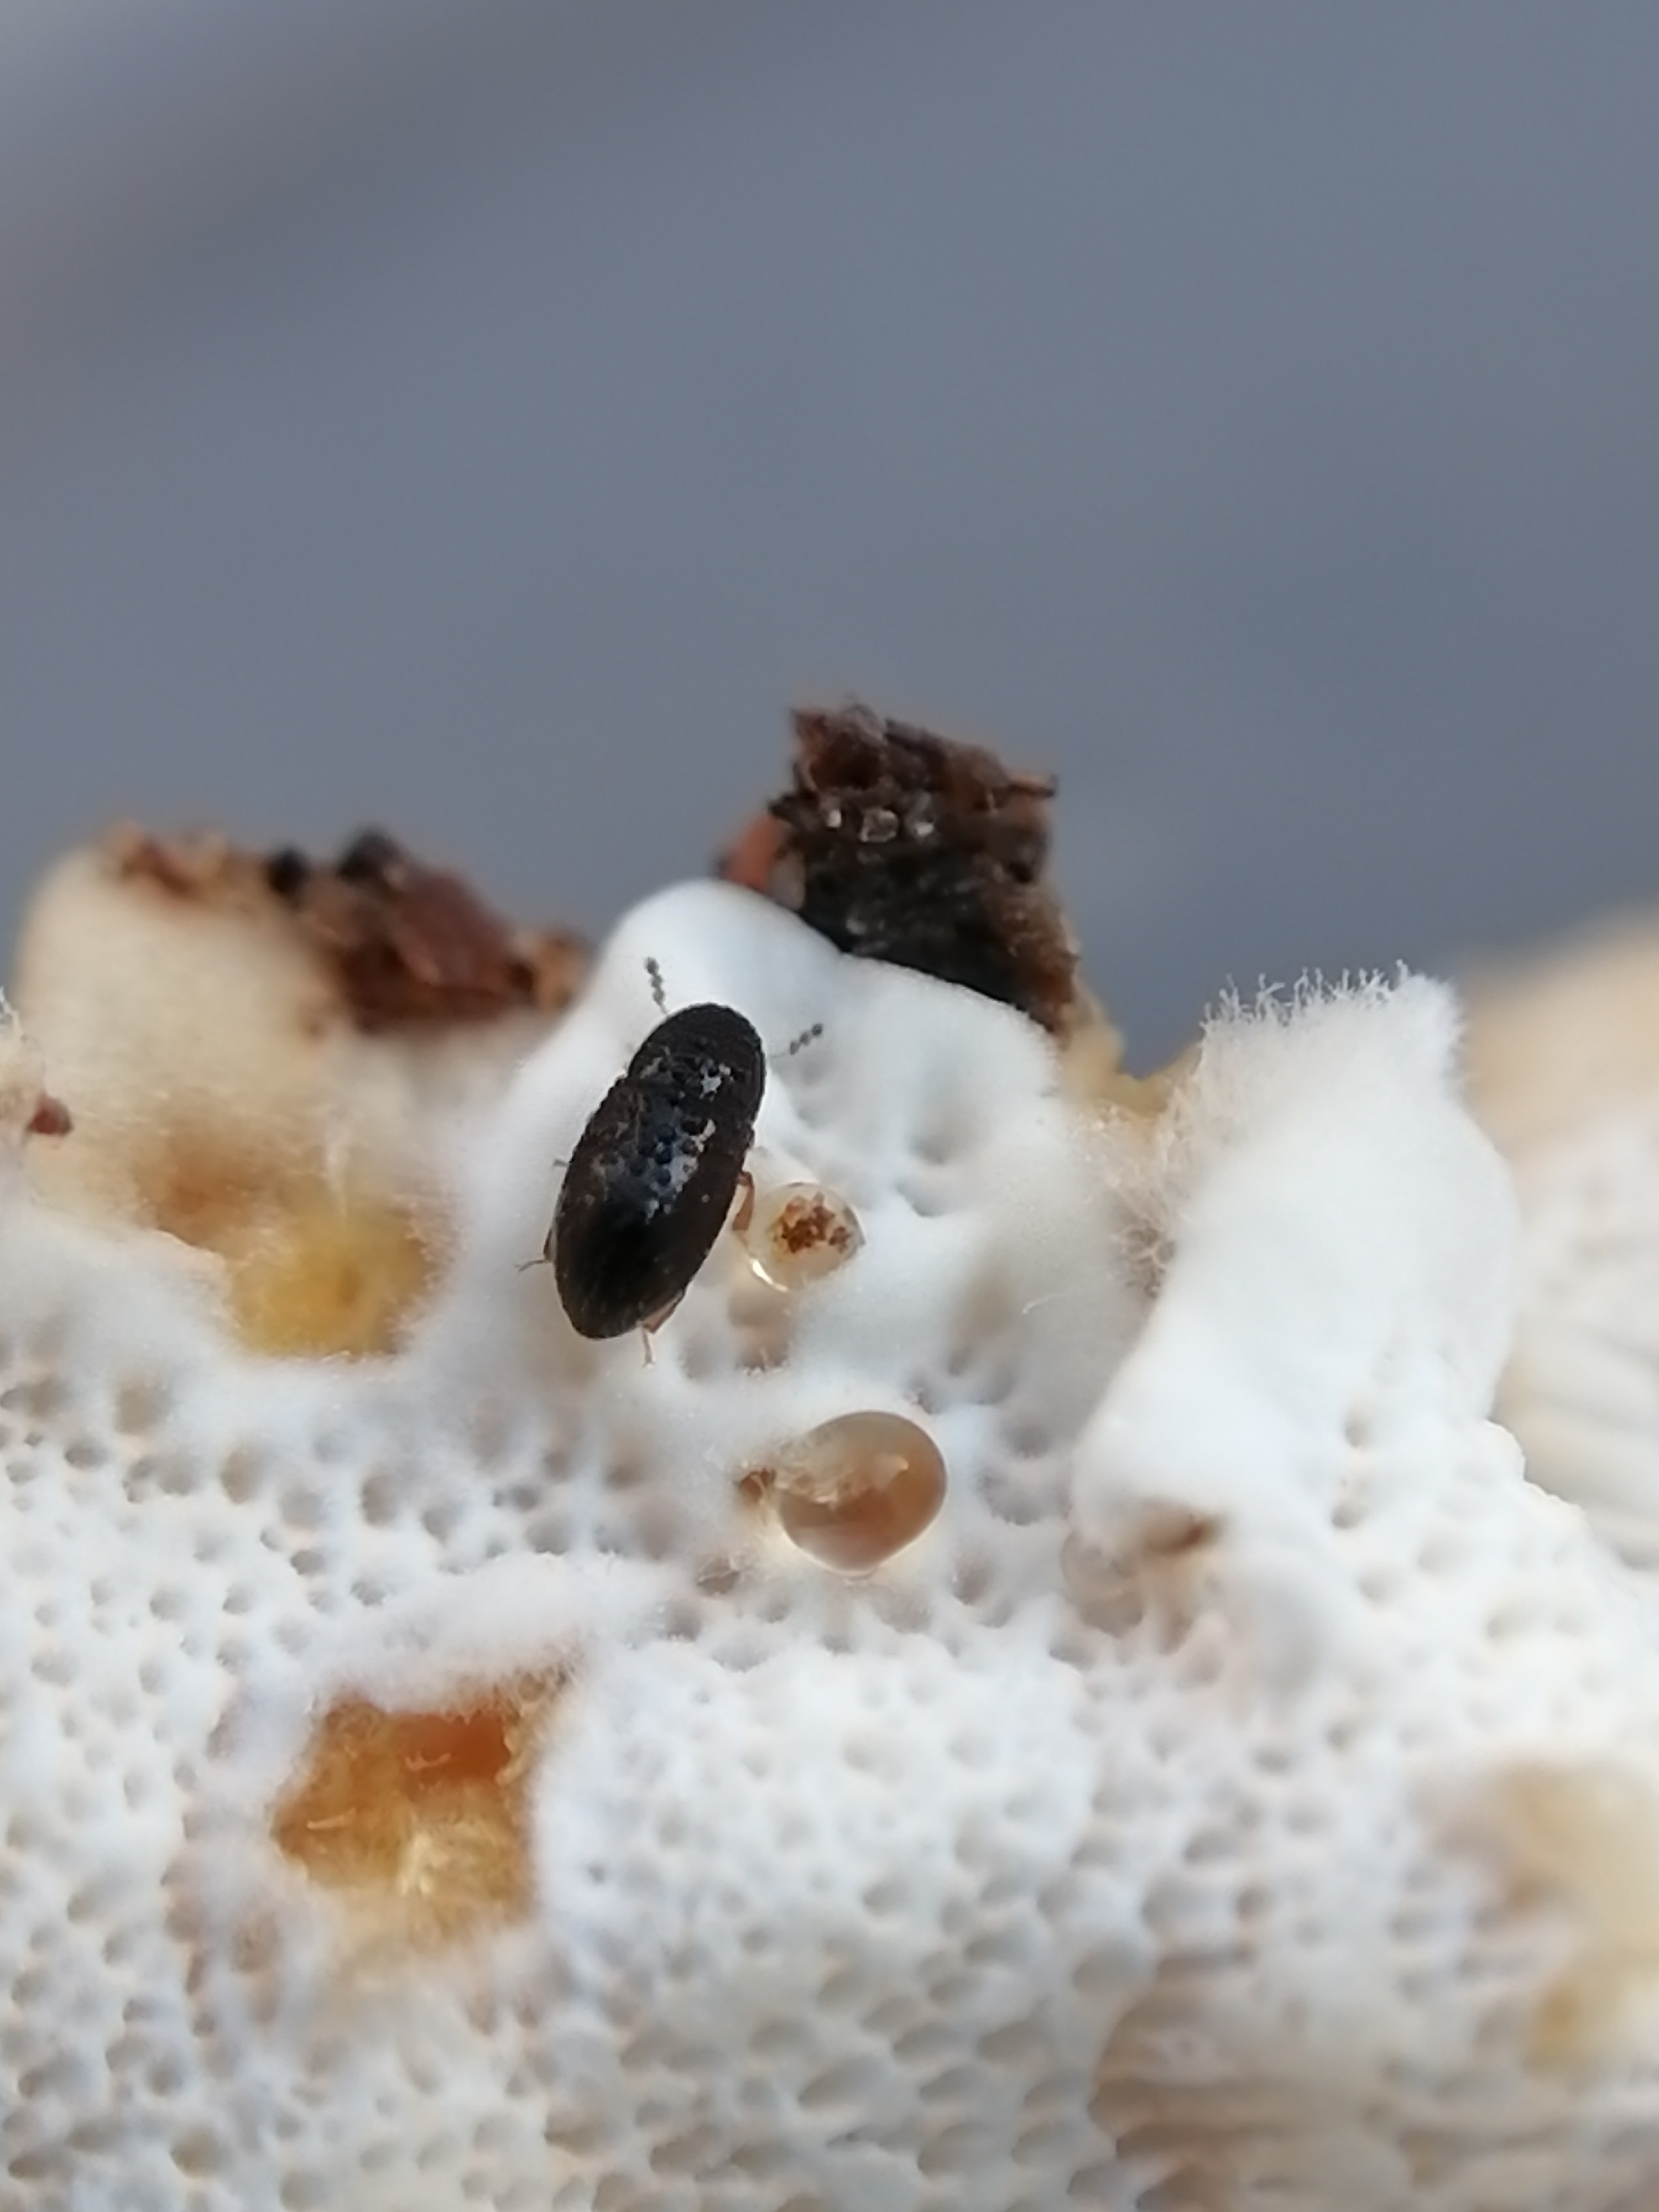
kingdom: Fungi
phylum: Basidiomycota
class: Agaricomycetes
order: Polyporales
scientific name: Polyporales
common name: poresvampordenen
